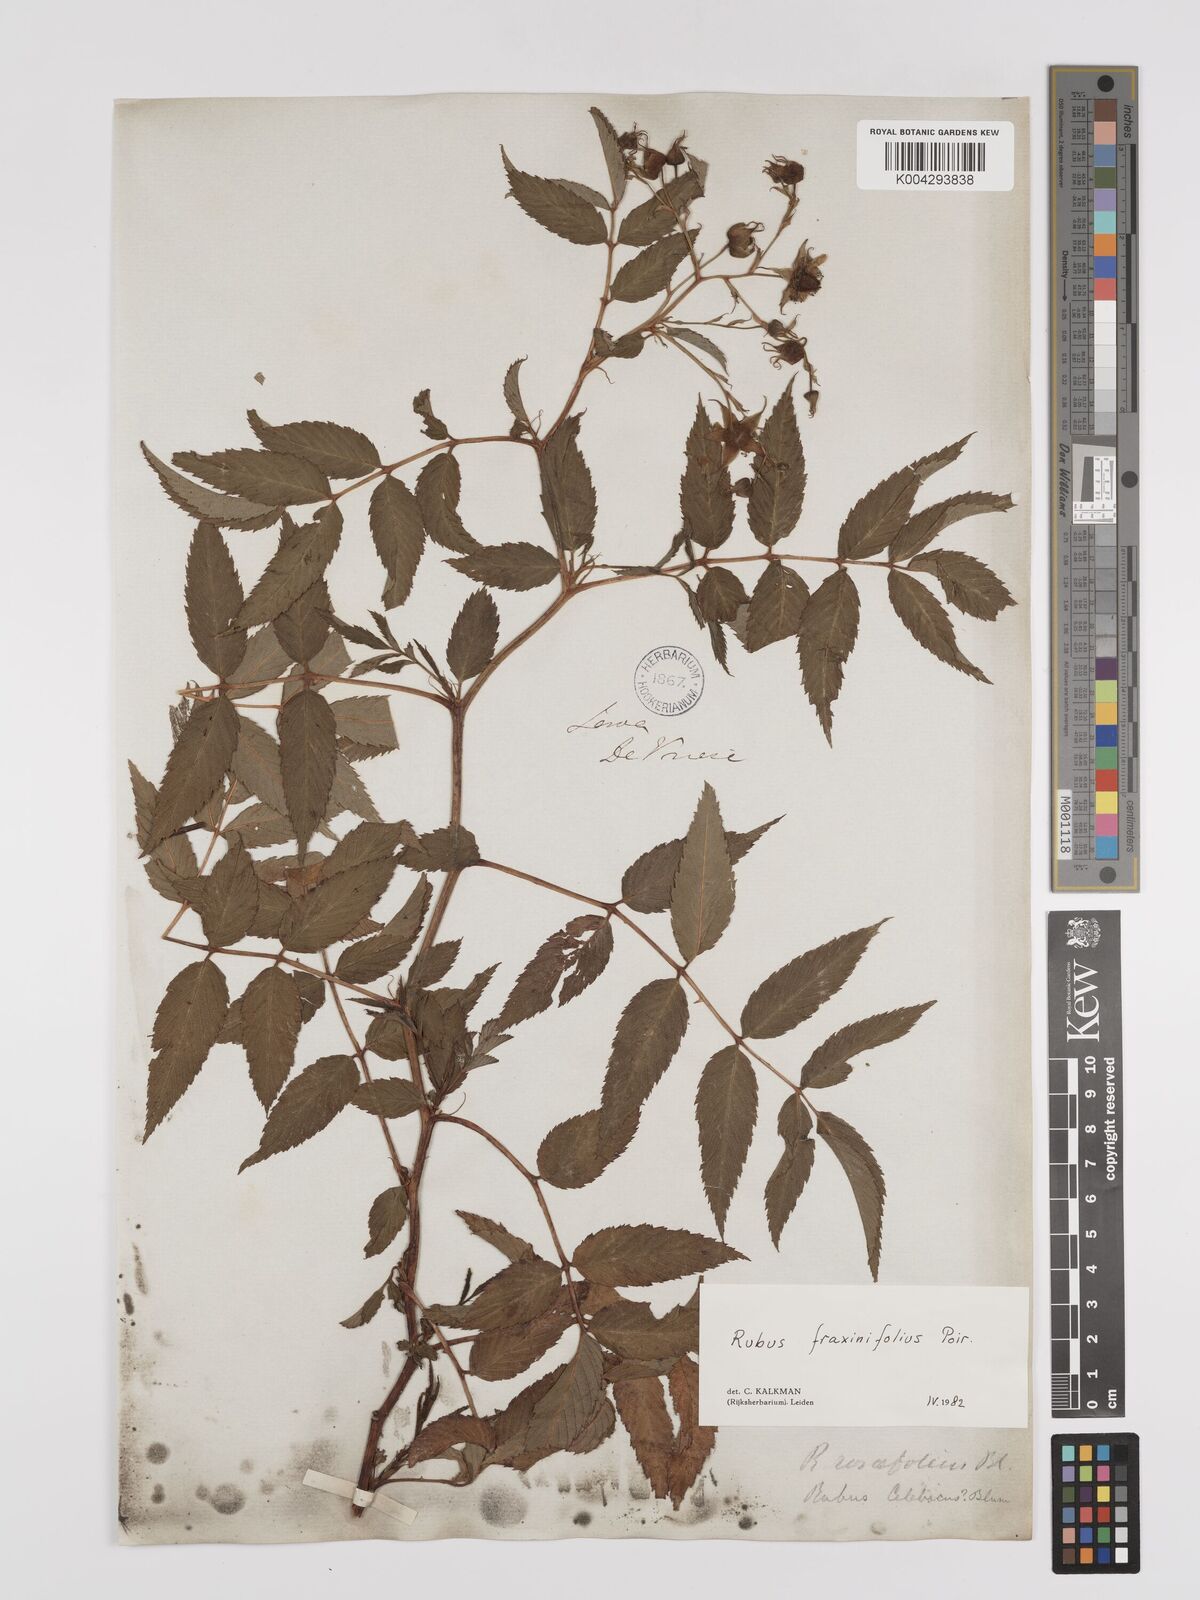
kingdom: Plantae
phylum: Tracheophyta
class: Magnoliopsida
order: Rosales
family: Rosaceae
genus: Rubus
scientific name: Rubus fraxinifolius
